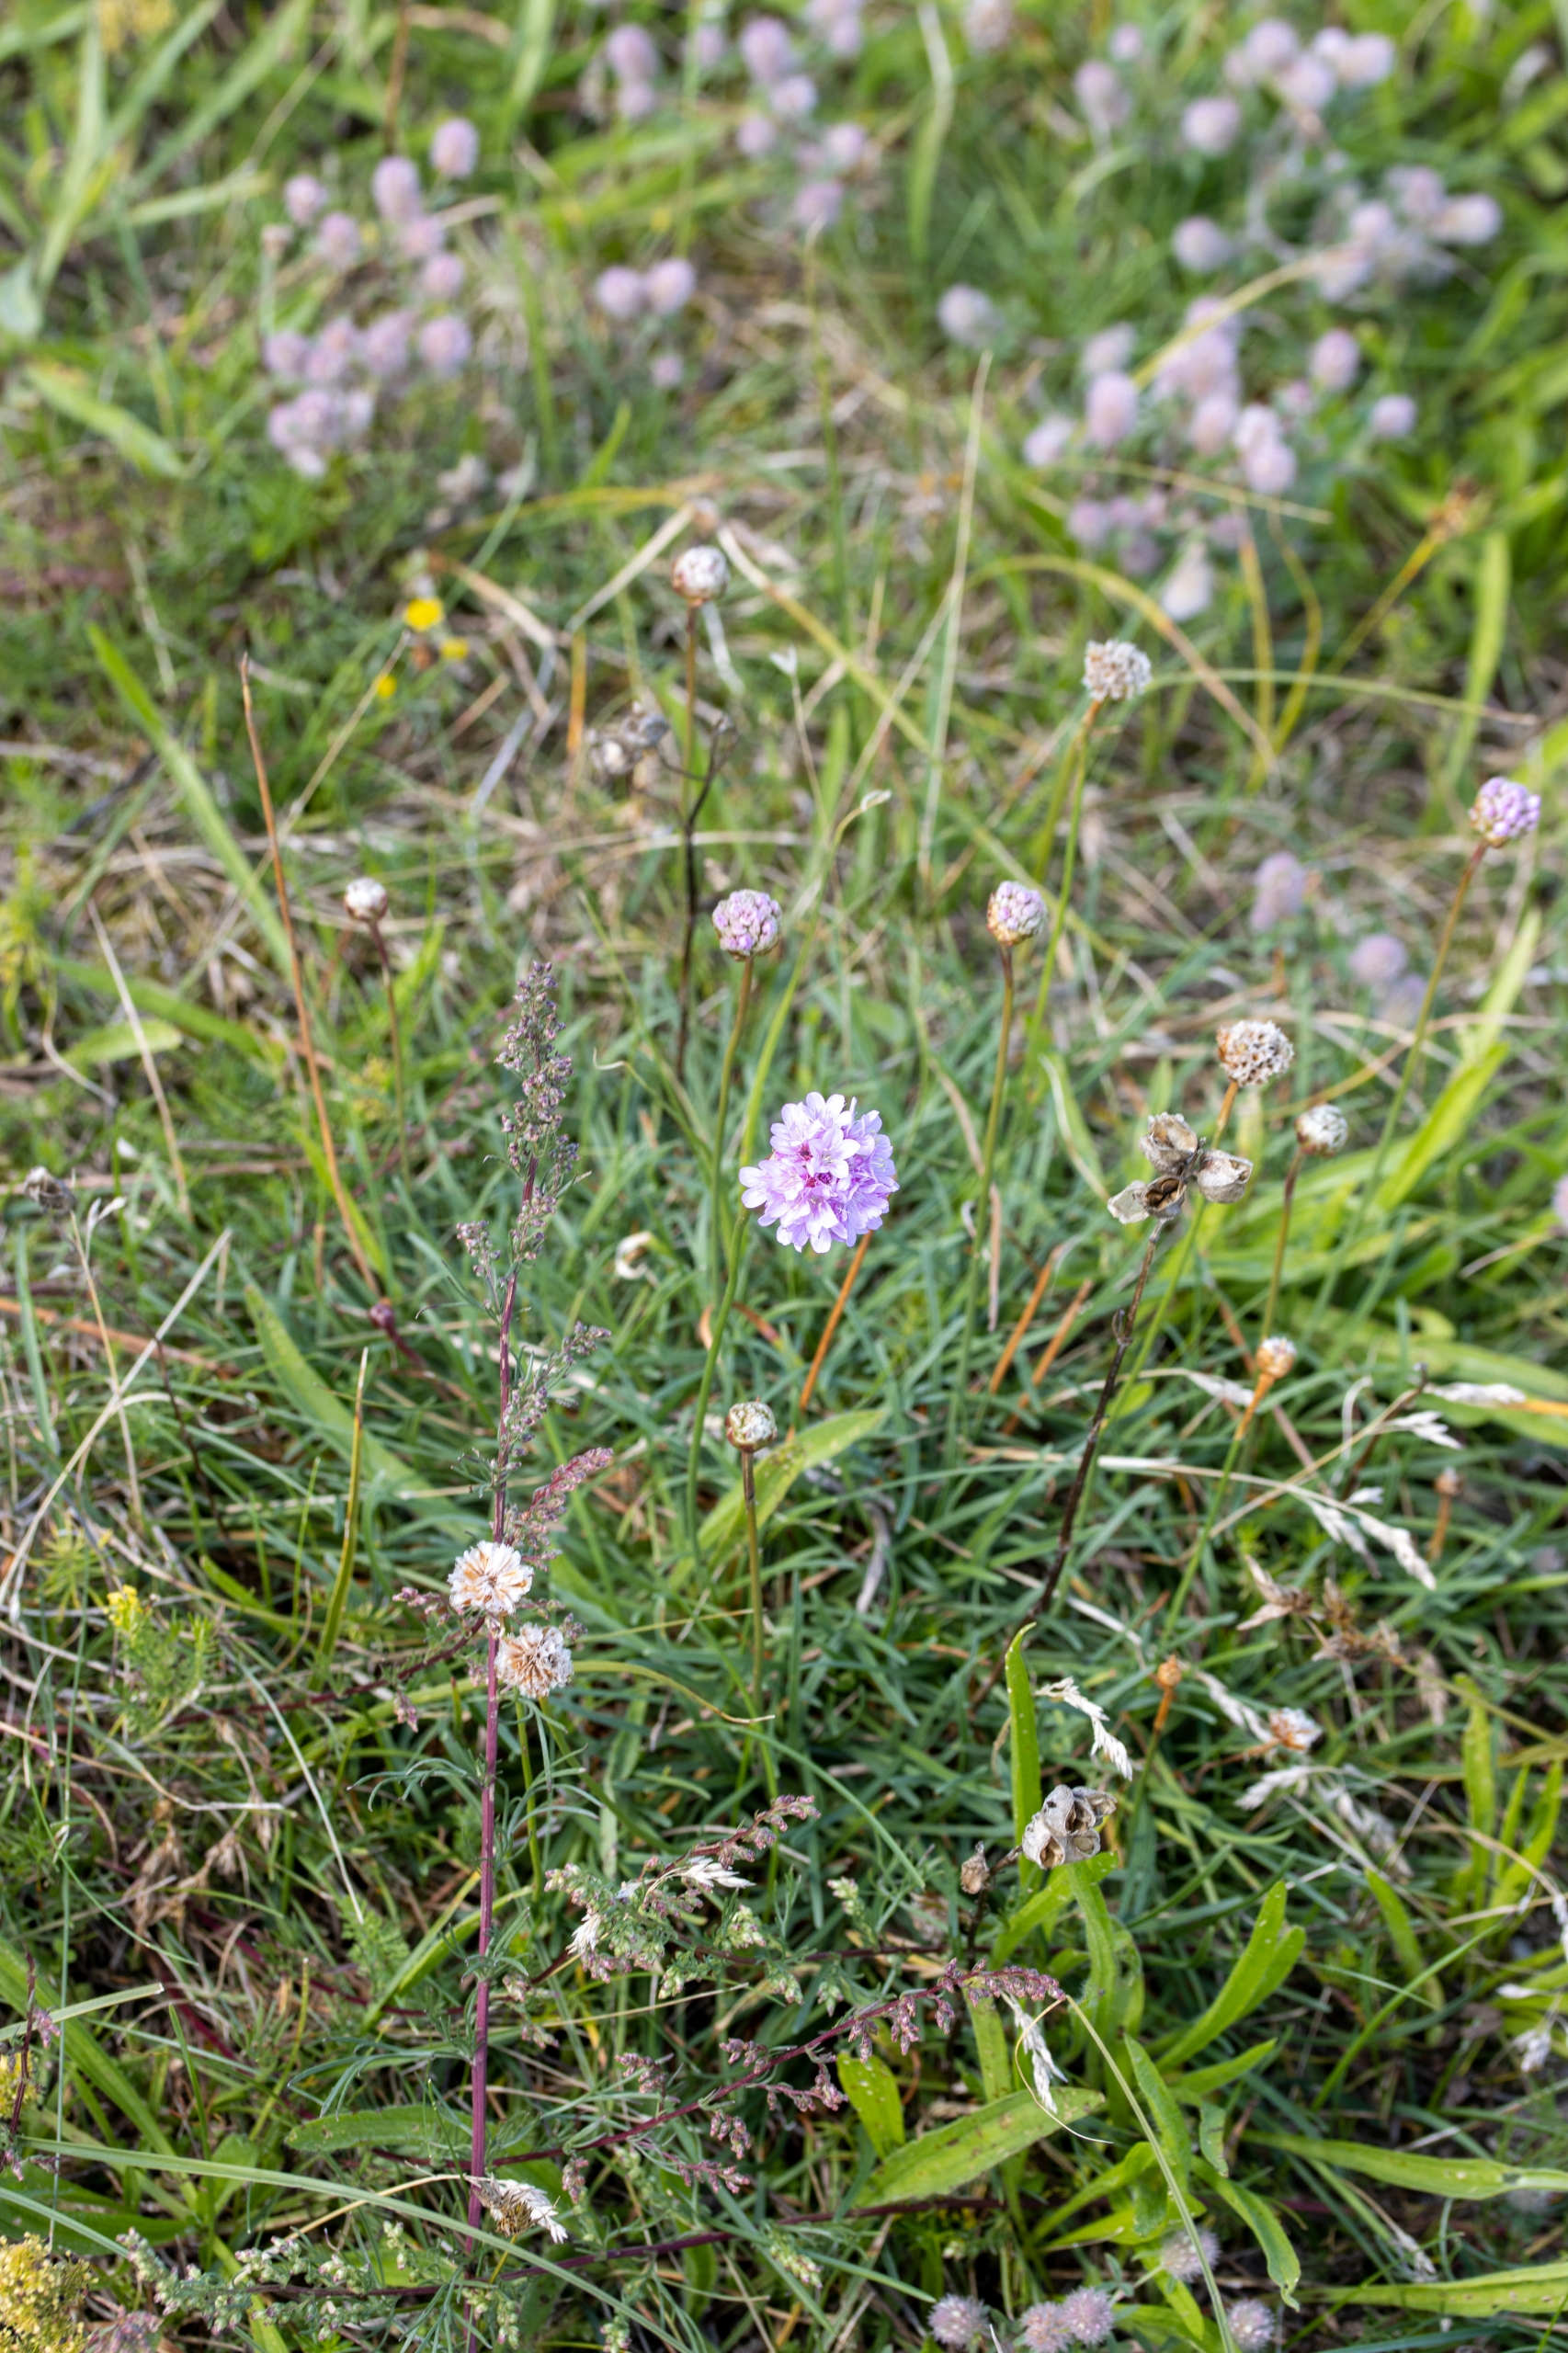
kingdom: Plantae
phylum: Tracheophyta
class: Magnoliopsida
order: Caryophyllales
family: Plumbaginaceae
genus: Armeria
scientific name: Armeria maritima
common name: Engelskgræs
